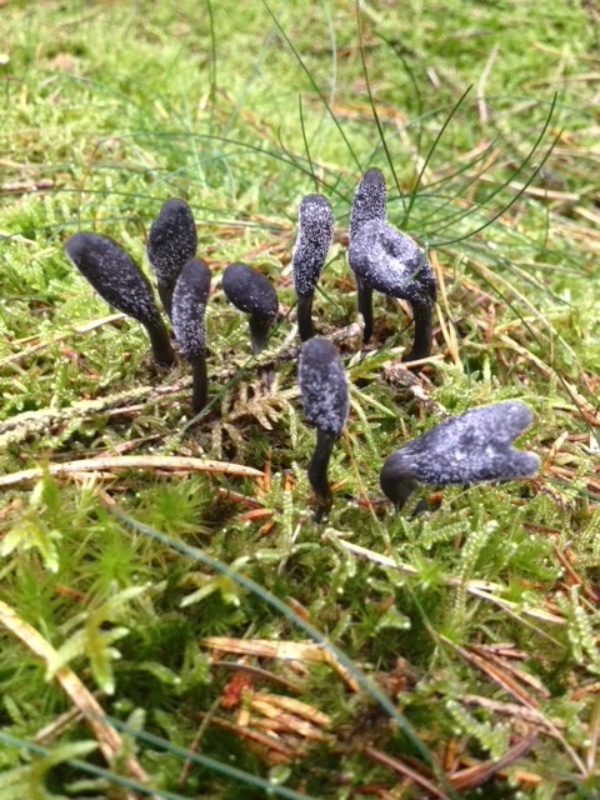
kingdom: Fungi
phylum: Ascomycota
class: Sordariomycetes
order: Hypocreales
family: Ophiocordycipitaceae
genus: Tolypocladium
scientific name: Tolypocladium ophioglossoides
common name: slank snyltekølle
